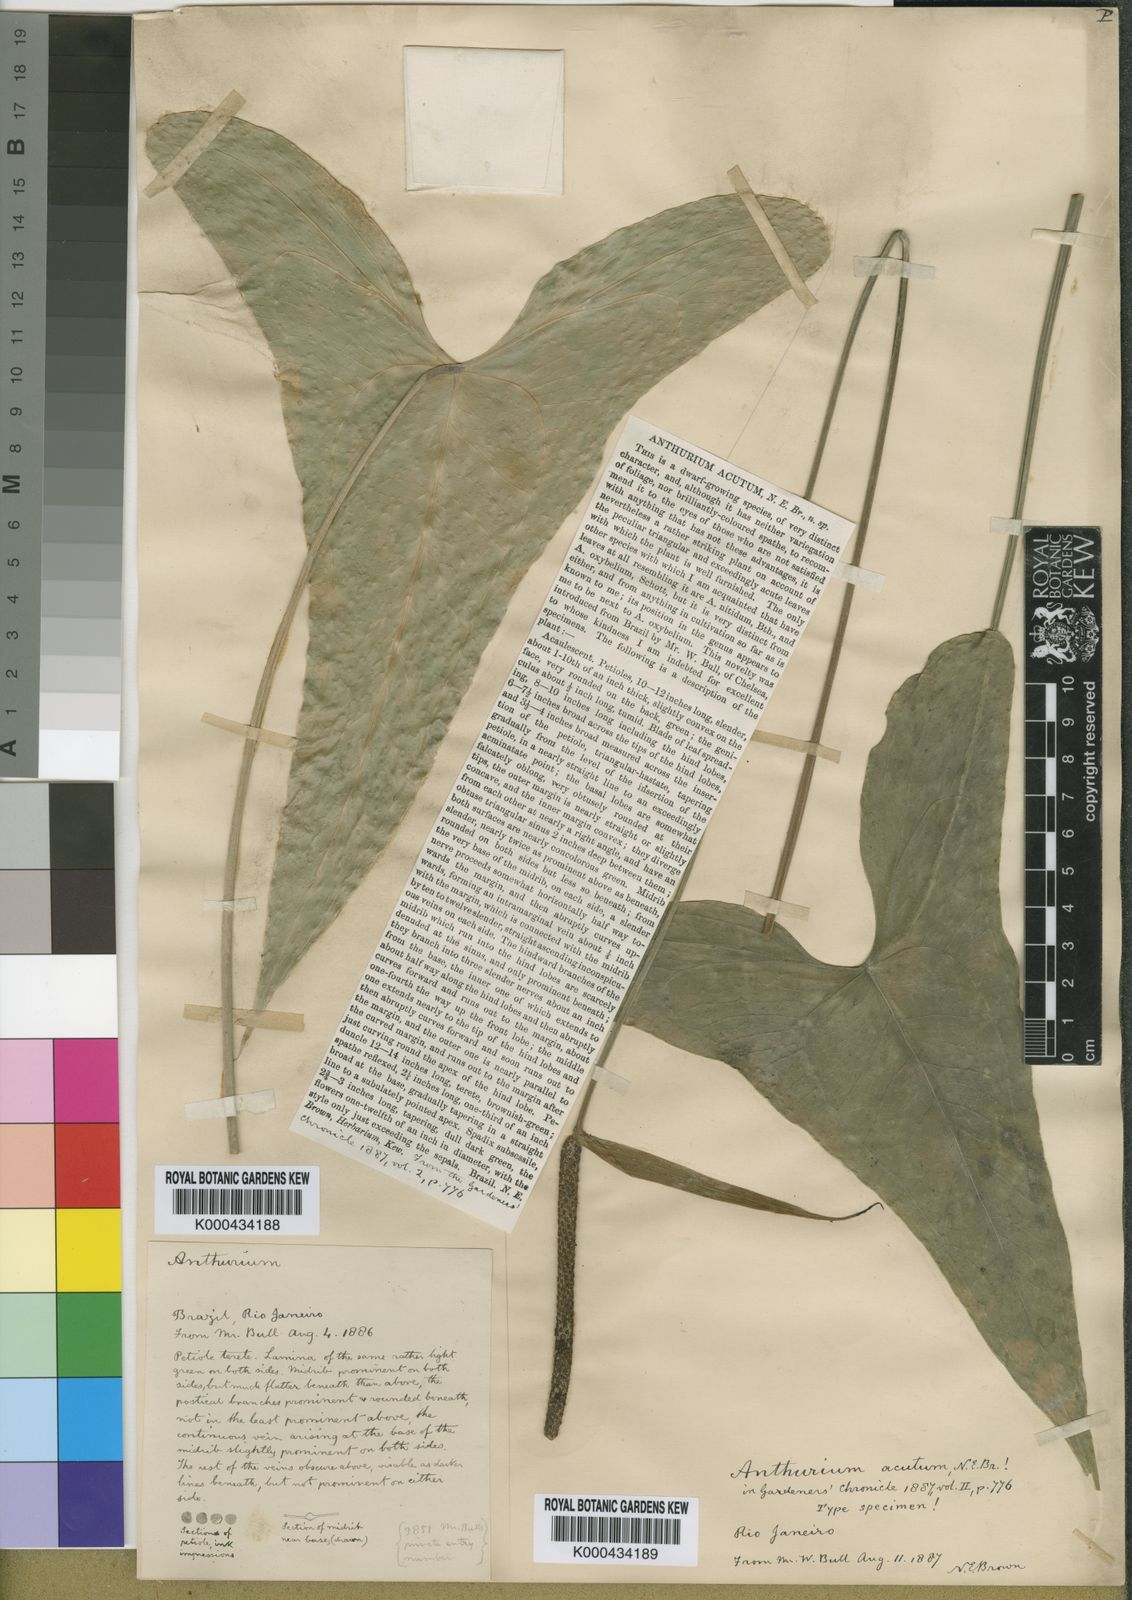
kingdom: Plantae
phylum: Tracheophyta
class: Liliopsida
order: Alismatales
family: Araceae
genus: Anthurium
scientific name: Anthurium acutum
